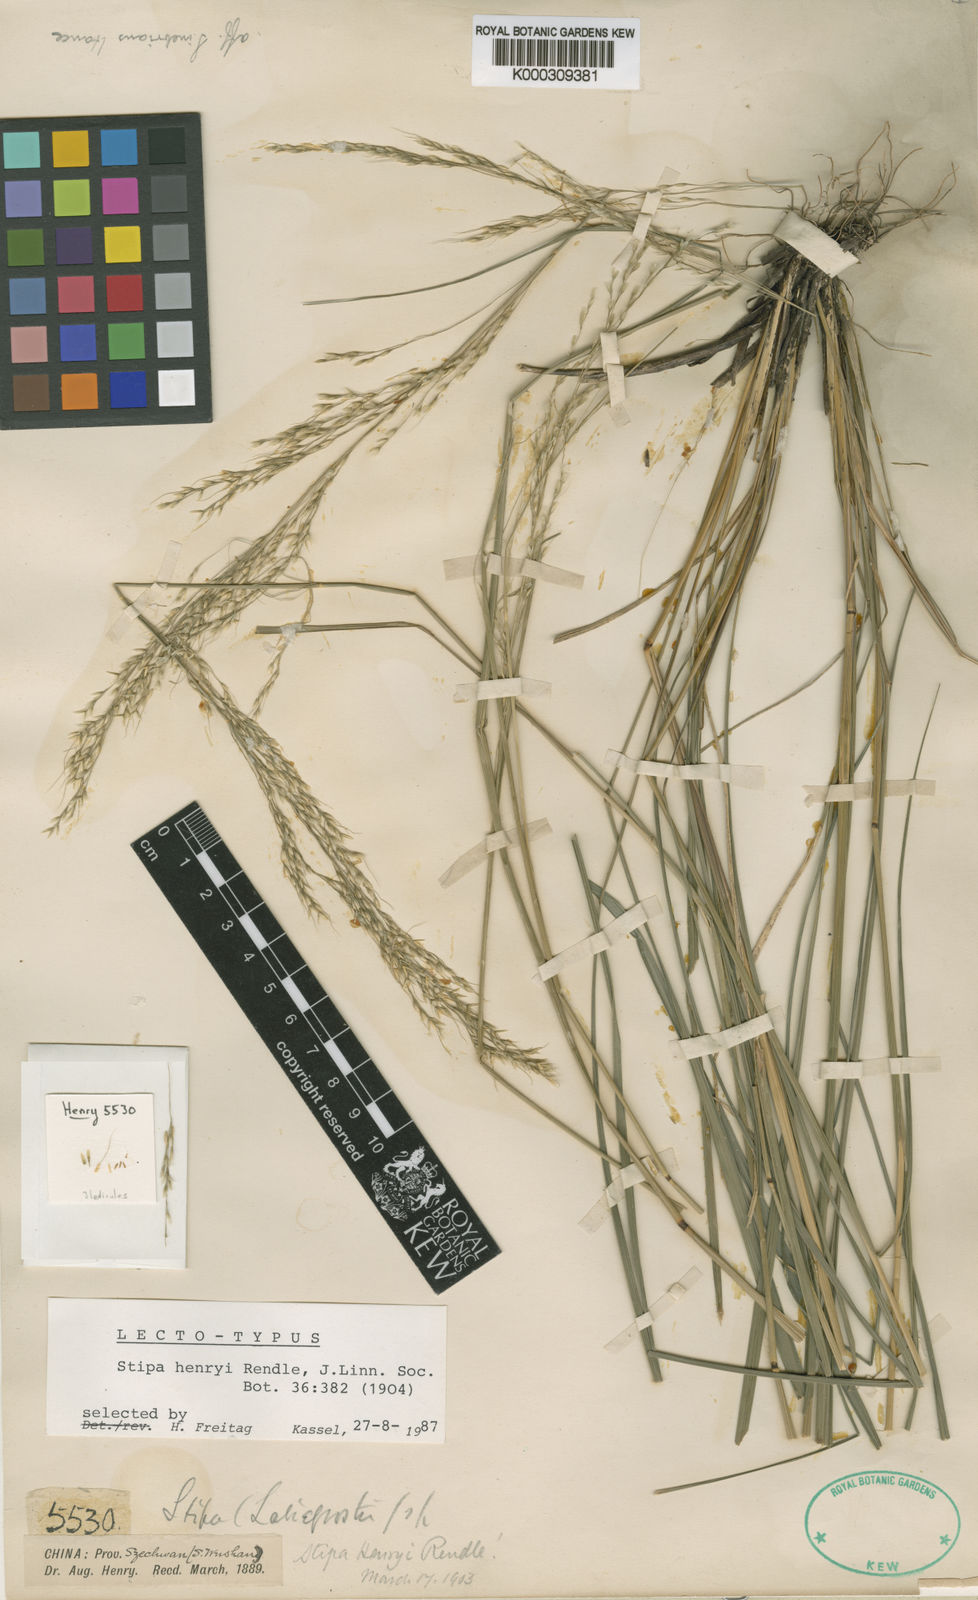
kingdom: Plantae
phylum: Tracheophyta
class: Liliopsida
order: Poales
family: Poaceae
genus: Stipa
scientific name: Stipa henryi
